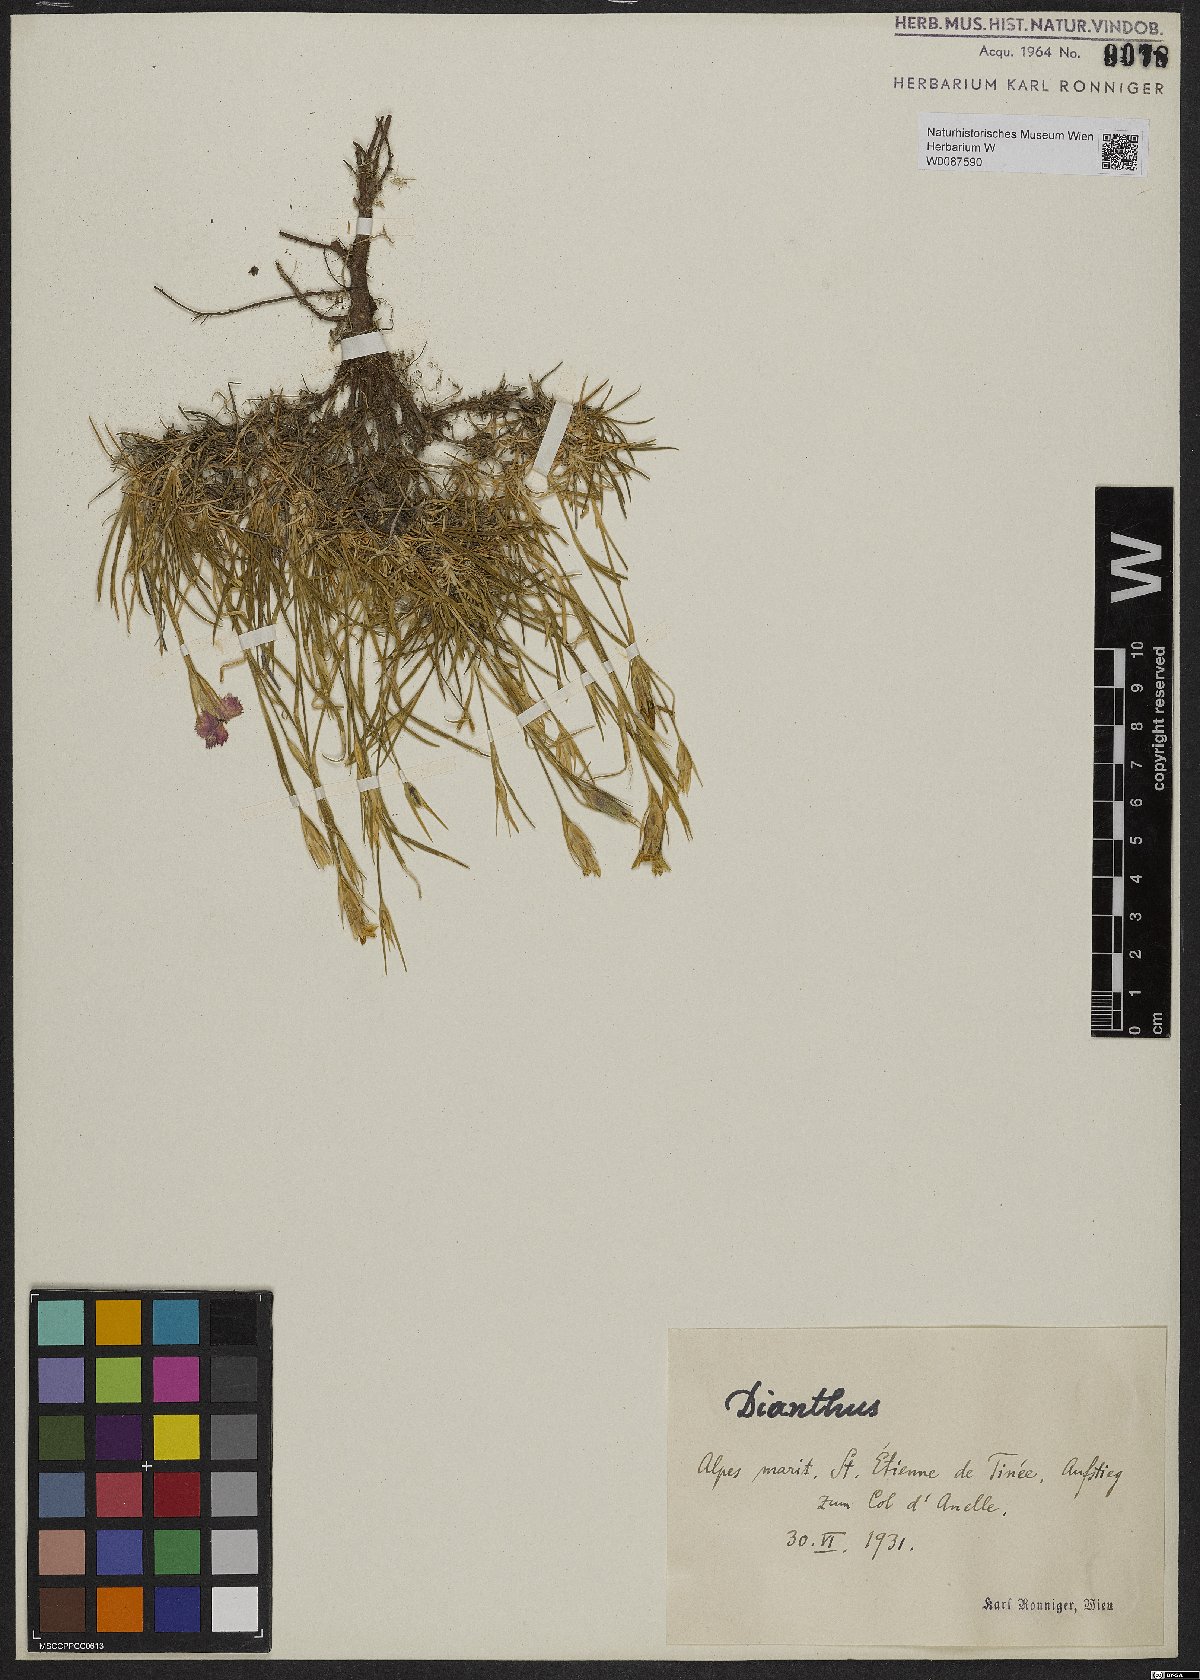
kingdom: Plantae
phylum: Tracheophyta
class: Magnoliopsida
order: Caryophyllales
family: Caryophyllaceae
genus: Dianthus
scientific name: Dianthus
